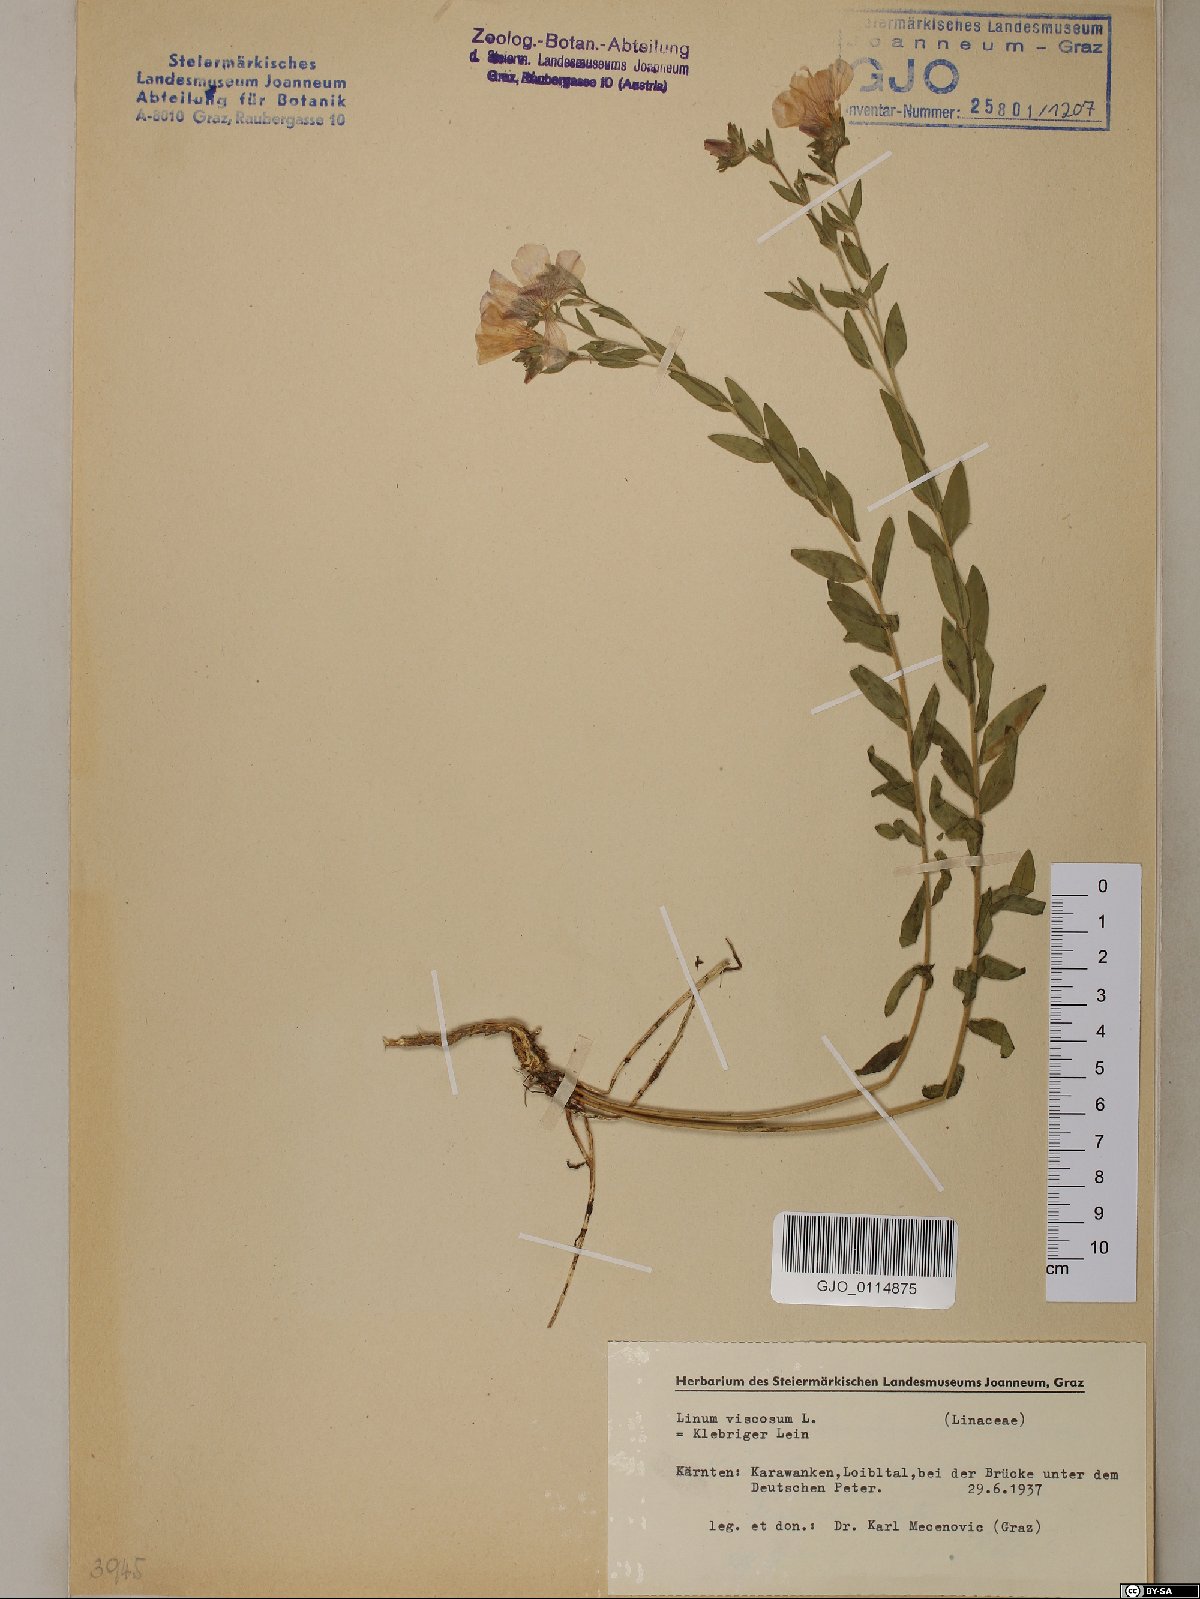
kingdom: Plantae
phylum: Tracheophyta
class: Magnoliopsida
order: Malpighiales
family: Linaceae
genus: Linum
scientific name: Linum viscosum
